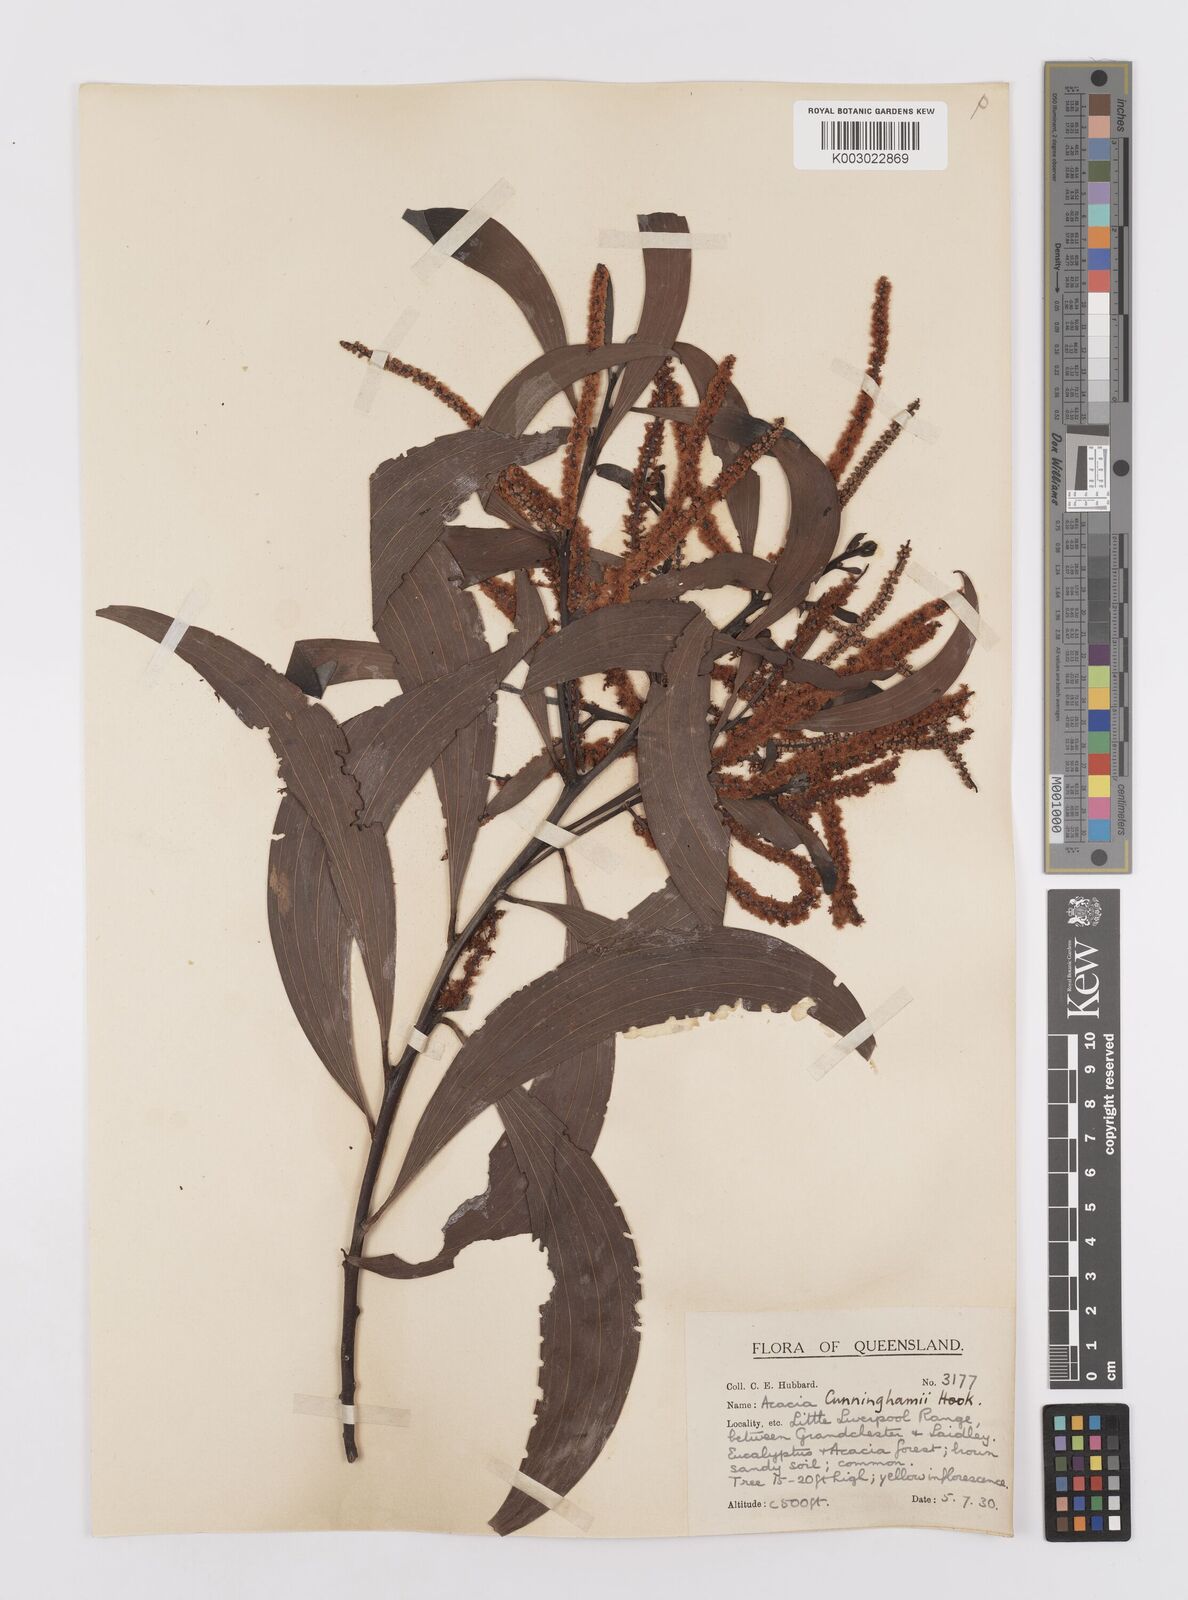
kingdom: Plantae
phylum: Tracheophyta
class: Magnoliopsida
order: Fabales
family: Fabaceae
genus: Acacia
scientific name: Acacia longispicata
